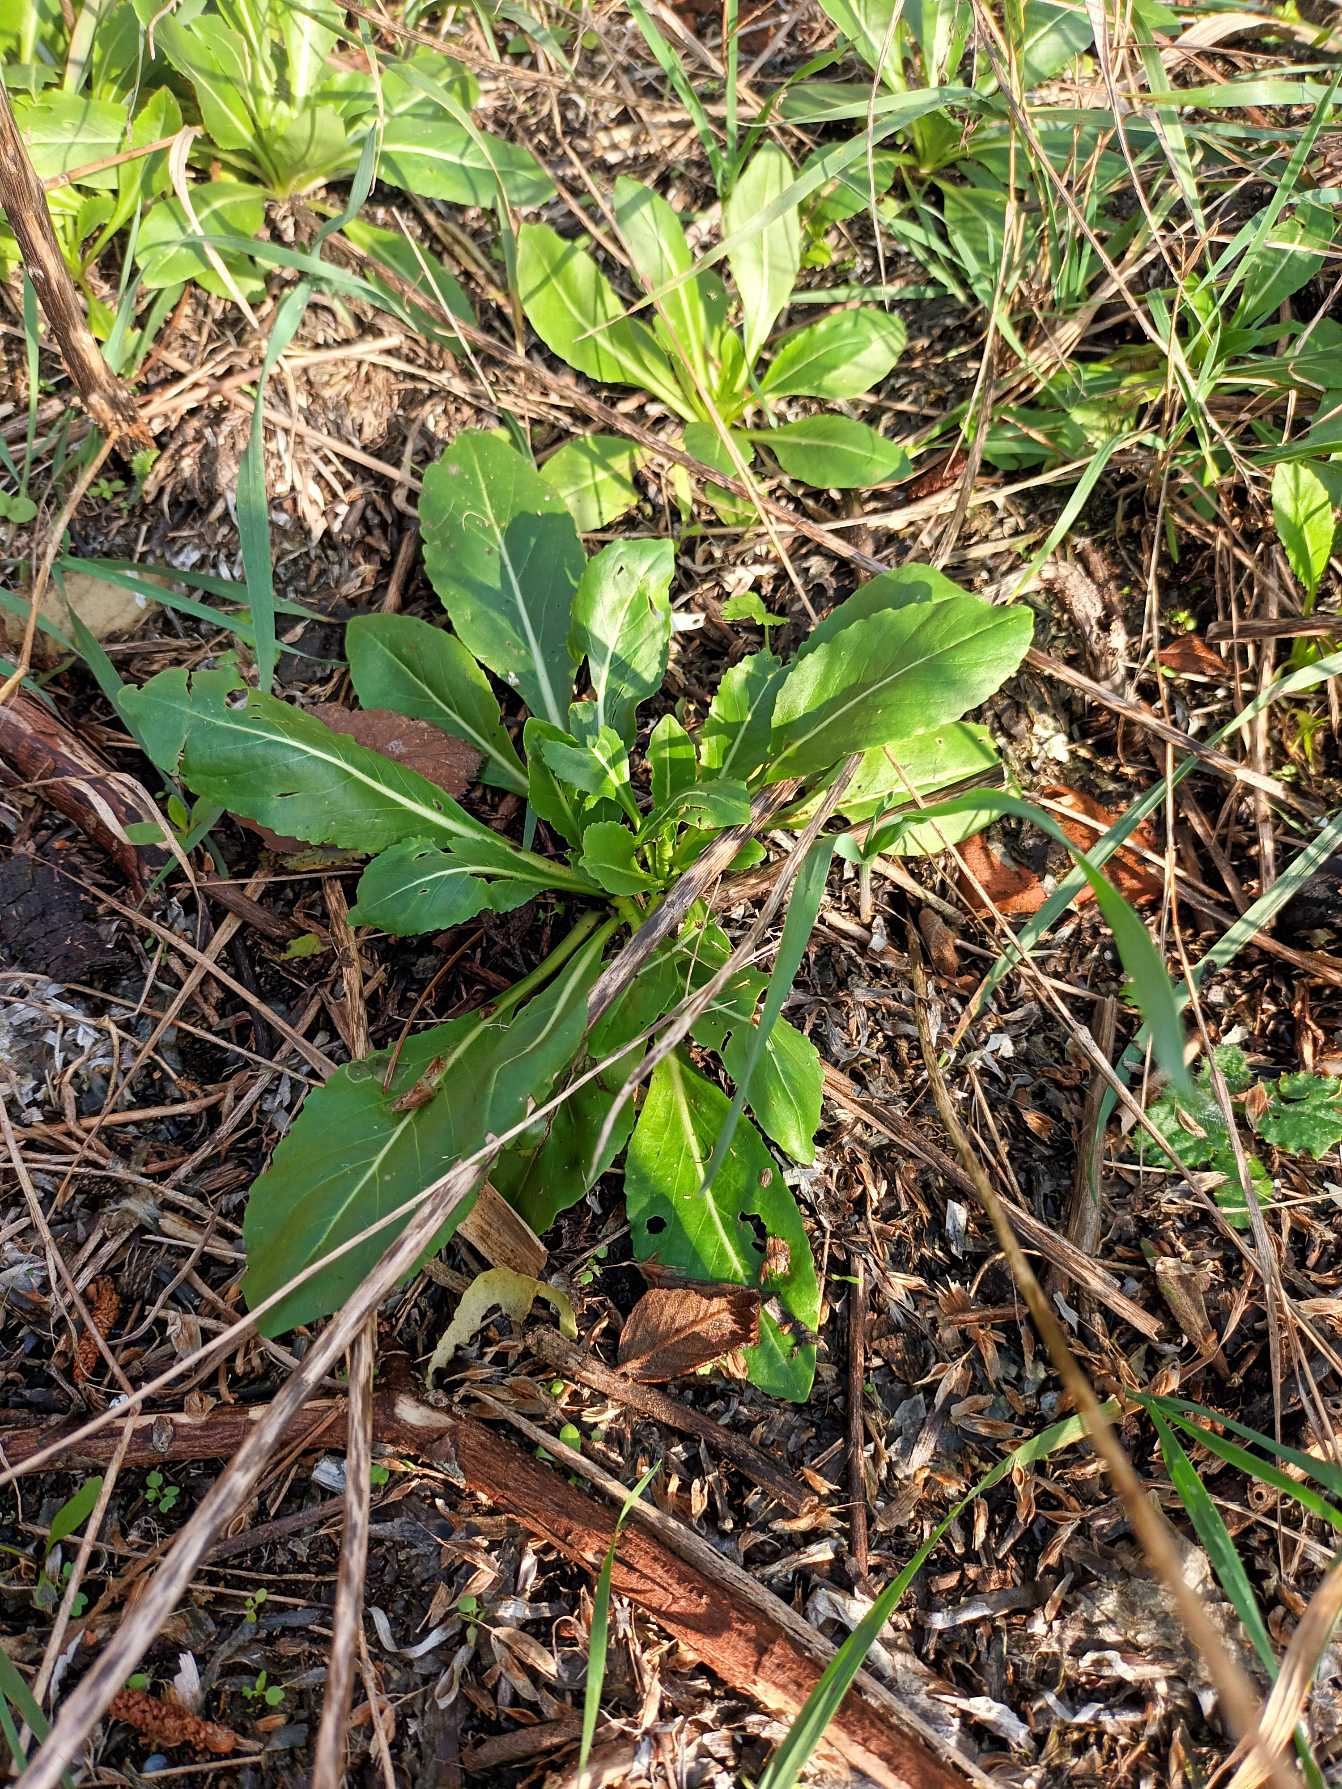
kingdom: Plantae
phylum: Tracheophyta
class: Magnoliopsida
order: Brassicales
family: Brassicaceae
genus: Isatis
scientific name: Isatis tinctoria
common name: Farve-vajd
